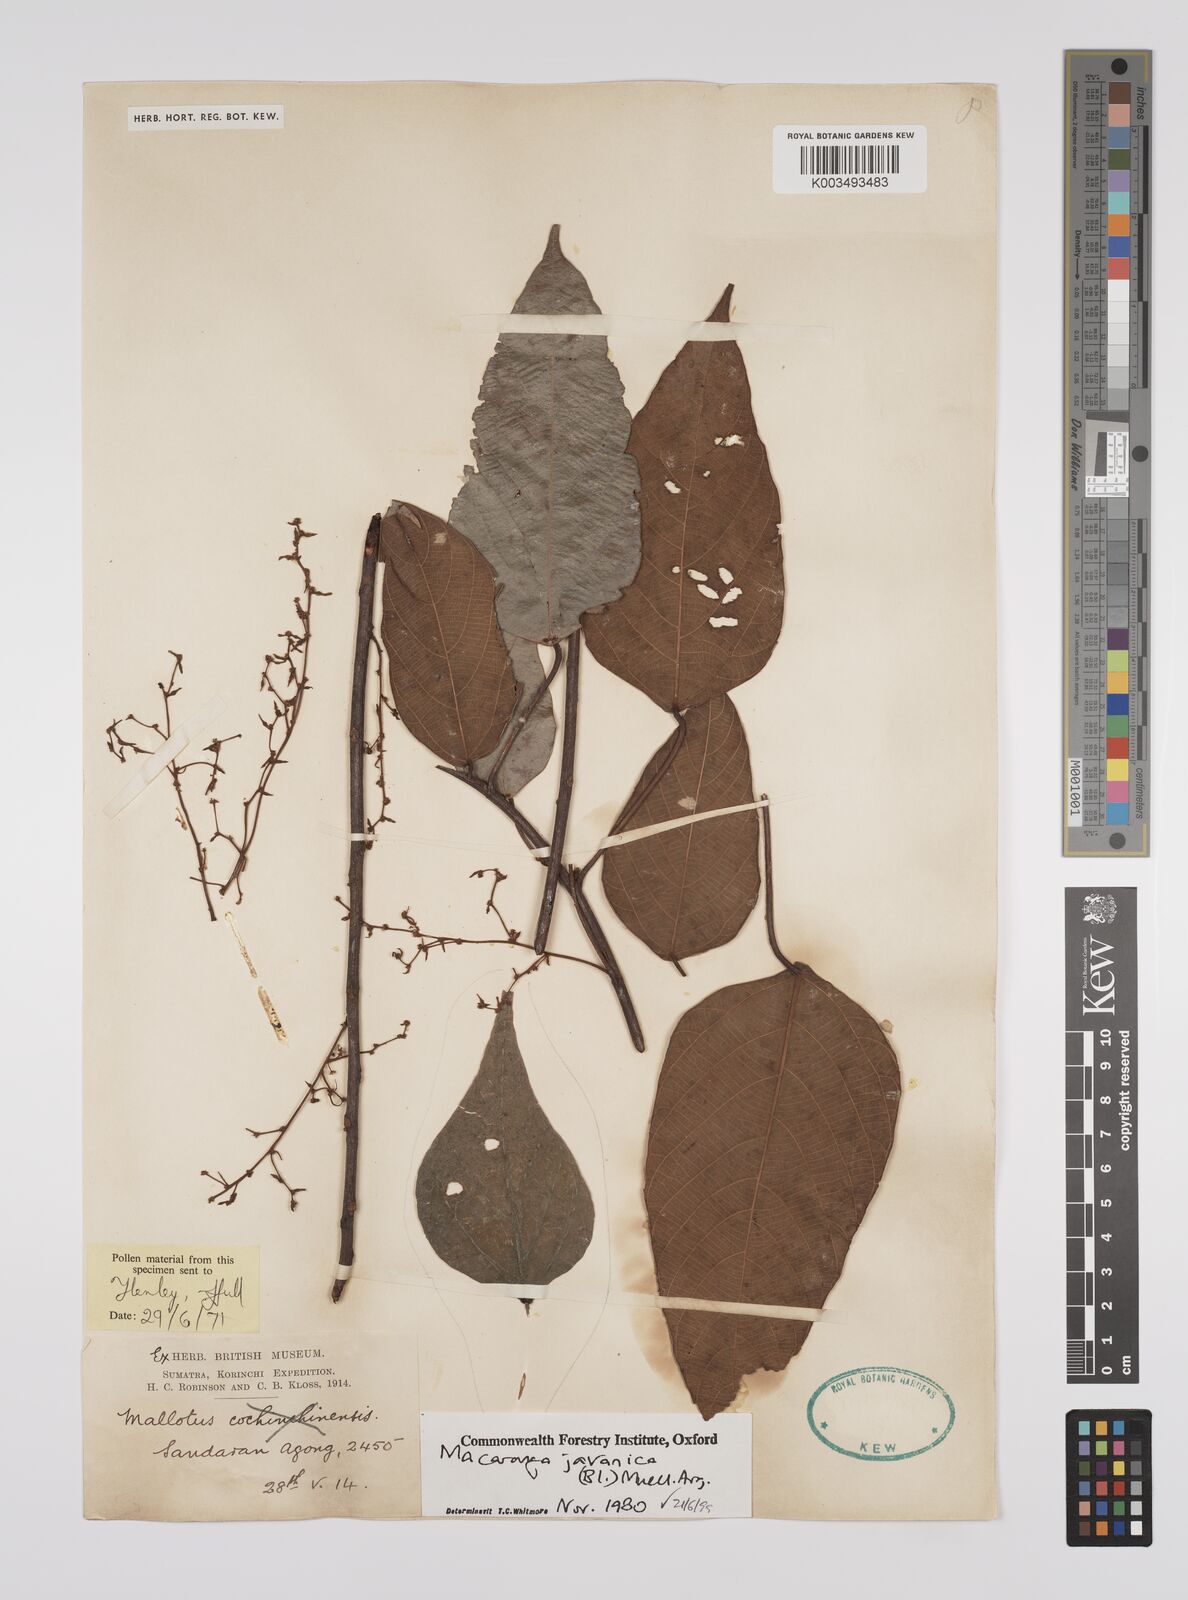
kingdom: Plantae
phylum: Tracheophyta
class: Magnoliopsida
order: Malpighiales
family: Euphorbiaceae
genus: Macaranga
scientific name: Macaranga javanica
